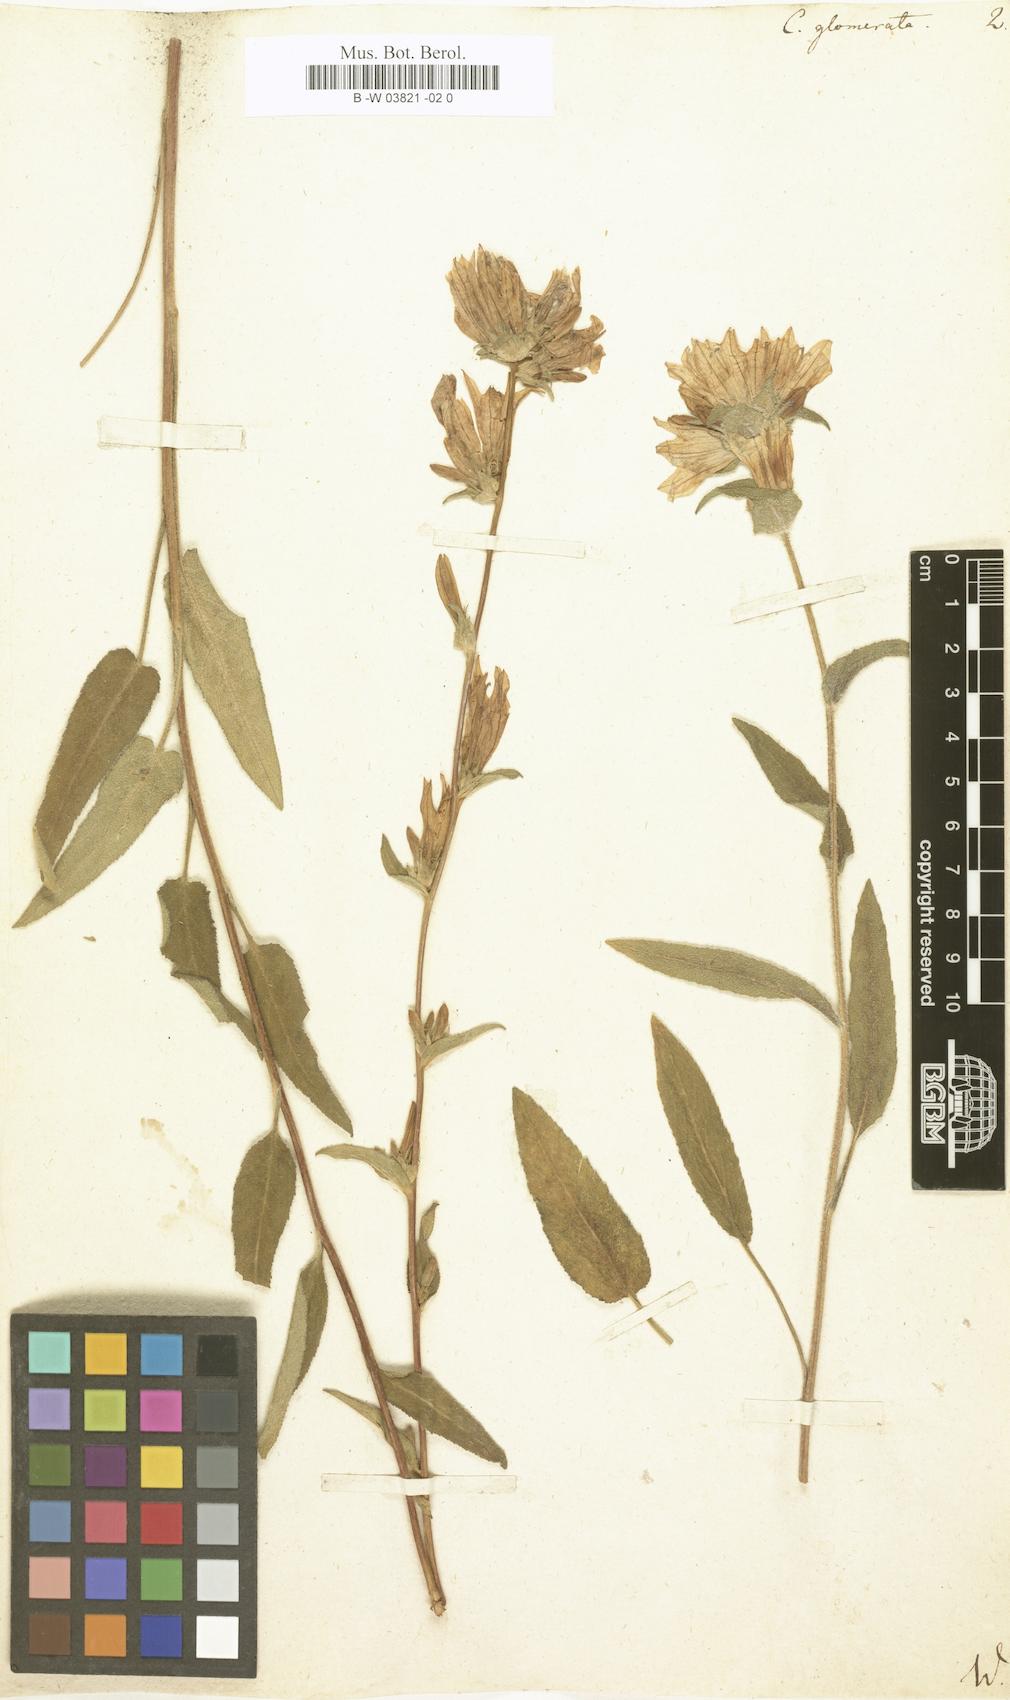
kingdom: Plantae
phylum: Tracheophyta
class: Magnoliopsida
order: Asterales
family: Campanulaceae
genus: Campanula
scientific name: Campanula glomerata
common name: Clustered bellflower
